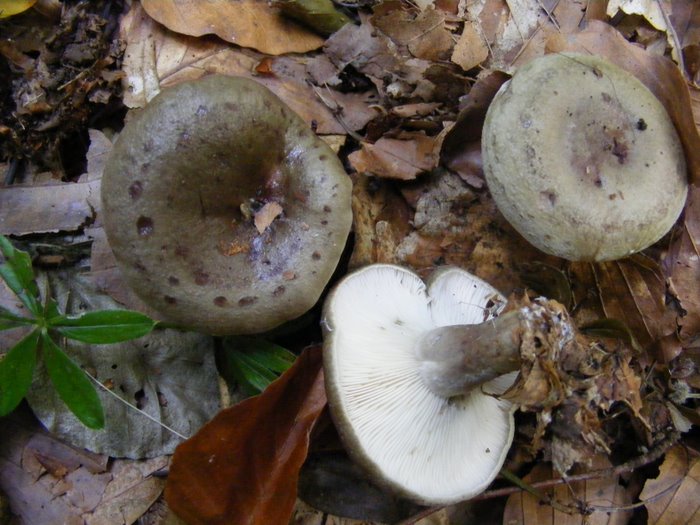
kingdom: Fungi
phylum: Basidiomycota
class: Agaricomycetes
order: Russulales
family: Russulaceae
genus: Lactarius
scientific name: Lactarius blennius
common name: dråbeplettet mælkehat
